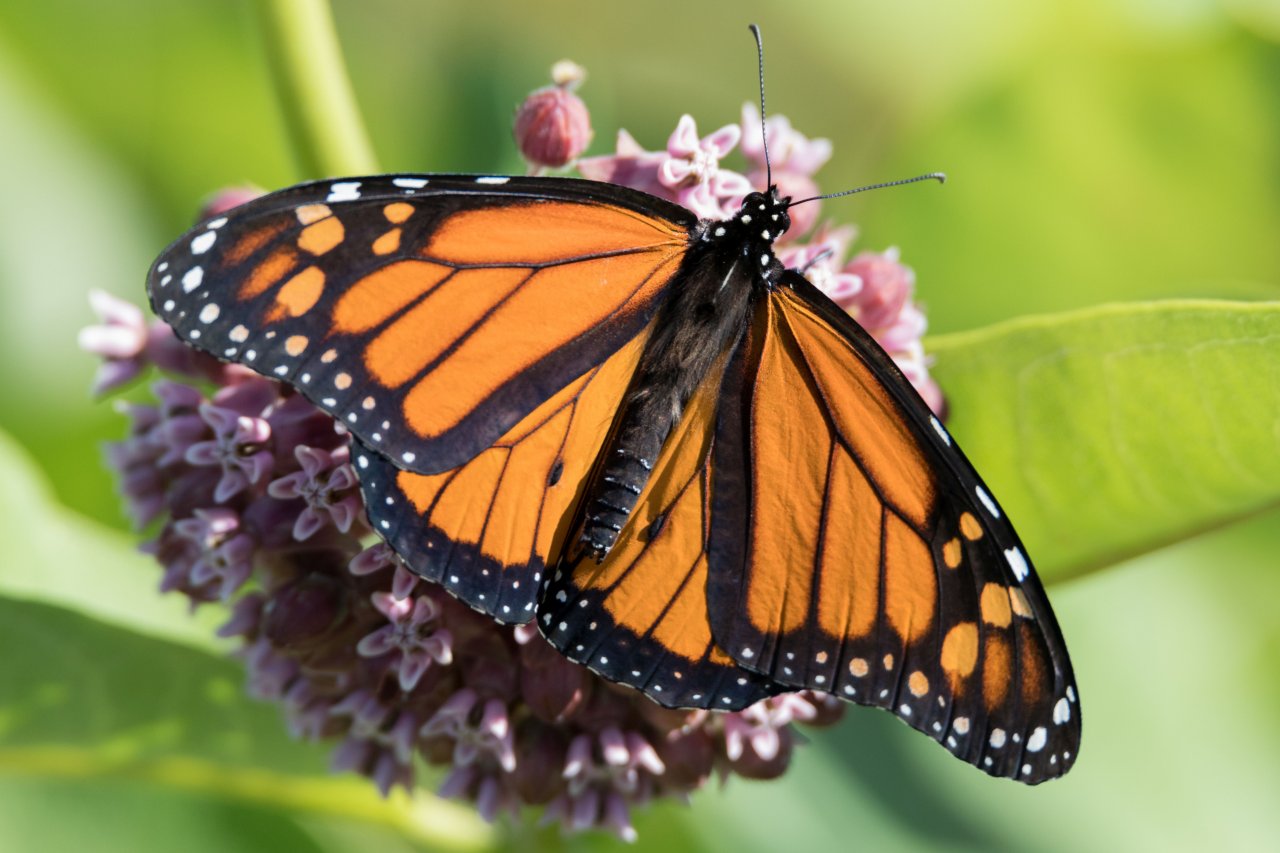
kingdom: Animalia
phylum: Arthropoda
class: Insecta
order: Lepidoptera
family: Nymphalidae
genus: Danaus
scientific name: Danaus plexippus
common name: Monarch
